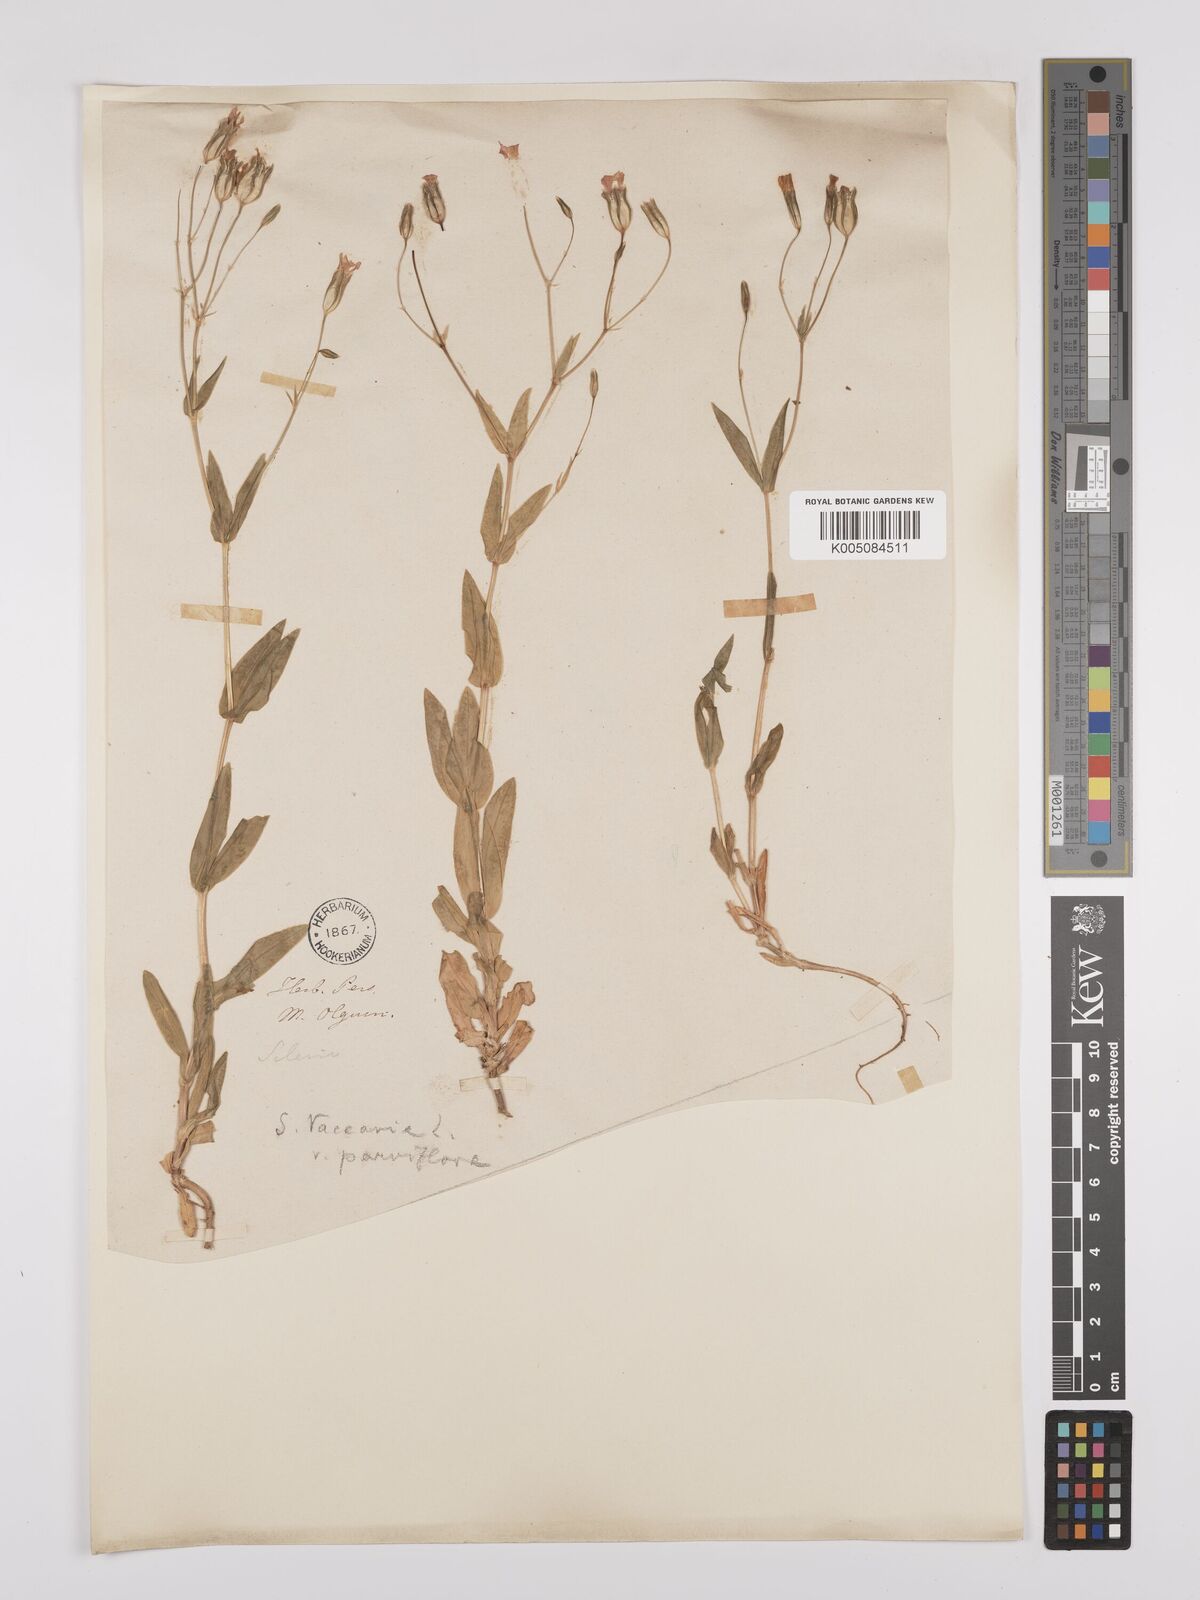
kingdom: Plantae
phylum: Tracheophyta
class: Magnoliopsida
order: Caryophyllales
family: Caryophyllaceae
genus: Gypsophila
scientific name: Gypsophila vaccaria
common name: Cow soapwort
